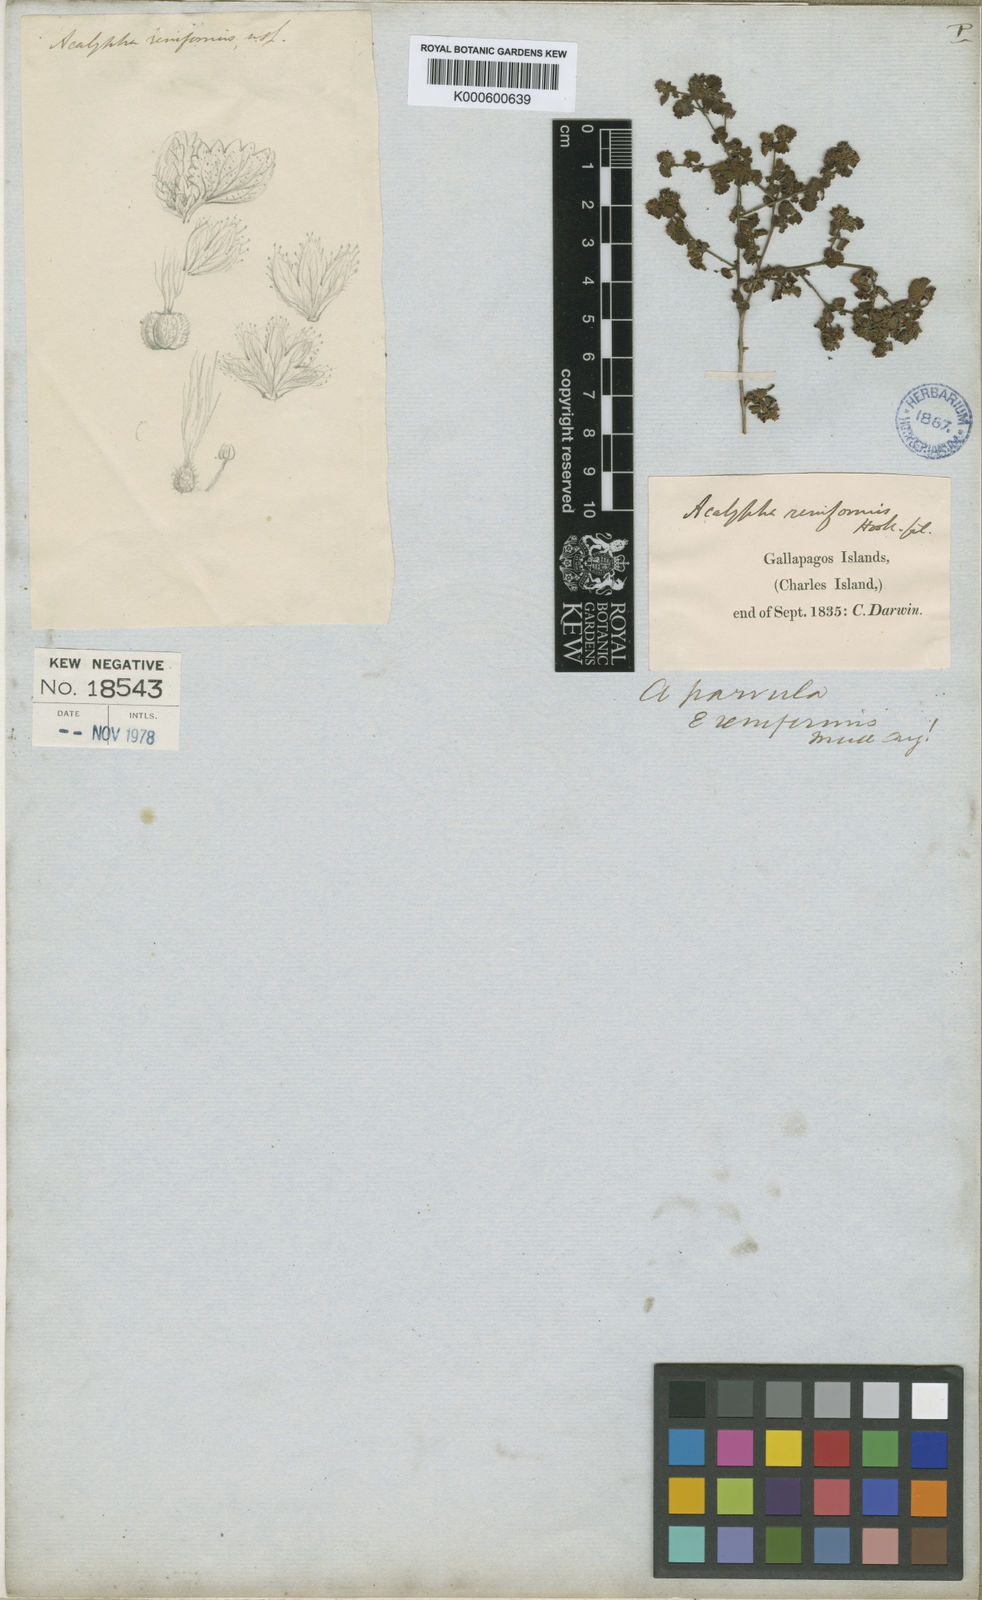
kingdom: Plantae
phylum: Tracheophyta
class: Magnoliopsida
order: Malpighiales
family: Euphorbiaceae
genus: Acalypha
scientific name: Acalypha parvula
